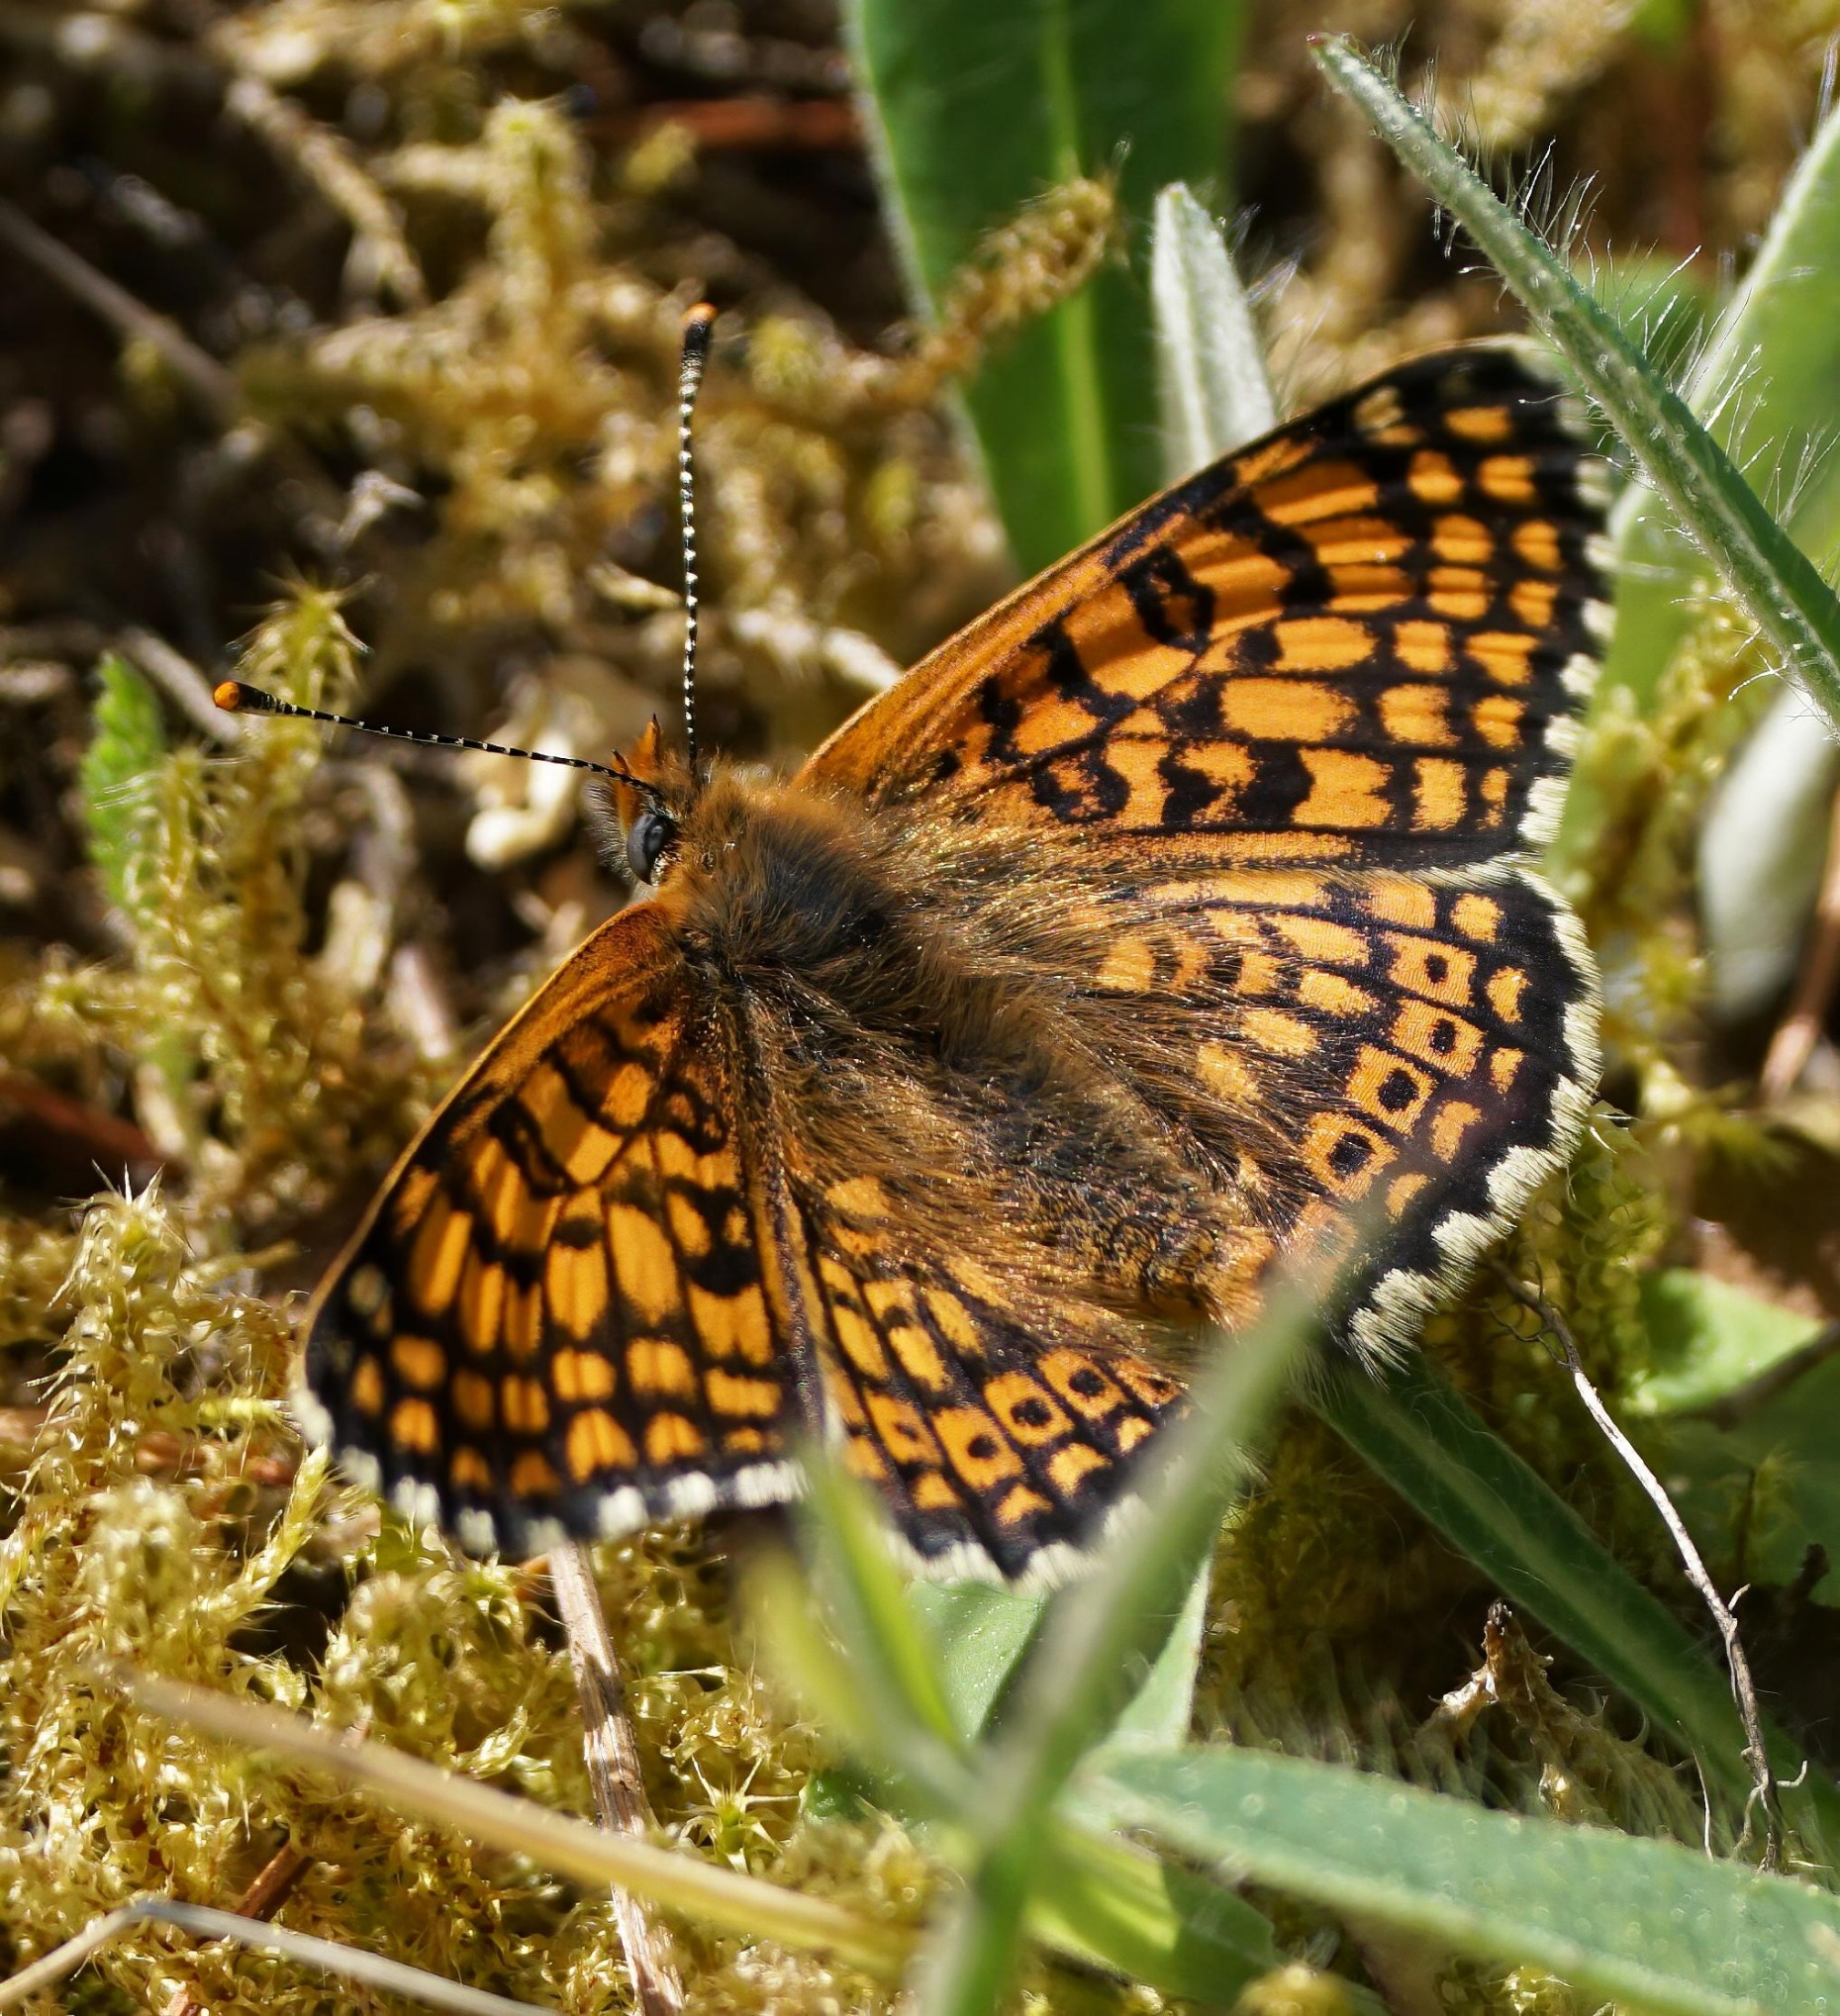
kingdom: Animalia
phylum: Arthropoda
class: Insecta
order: Lepidoptera
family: Nymphalidae
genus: Melitaea
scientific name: Melitaea cinxia
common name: Okkergul pletvinge
